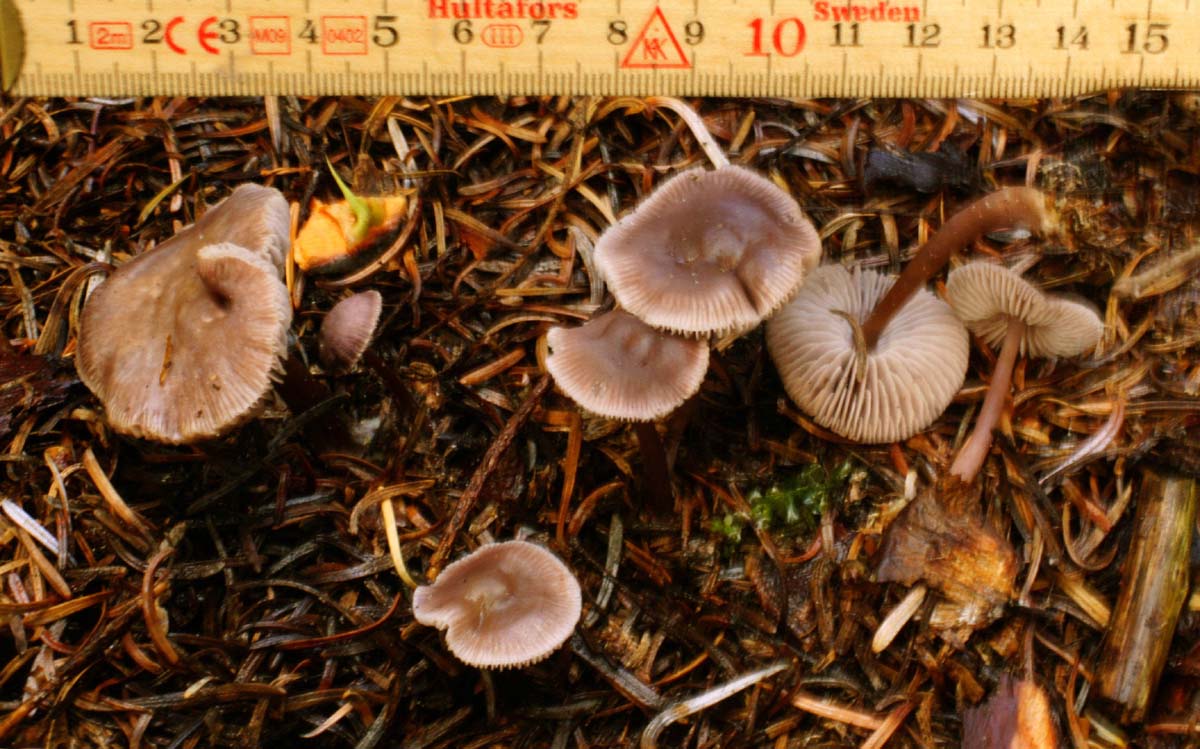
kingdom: Fungi
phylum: Basidiomycota
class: Agaricomycetes
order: Agaricales
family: Mycenaceae
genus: Prunulus
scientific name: Prunulus diosmus
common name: tobaks-huesvamp
